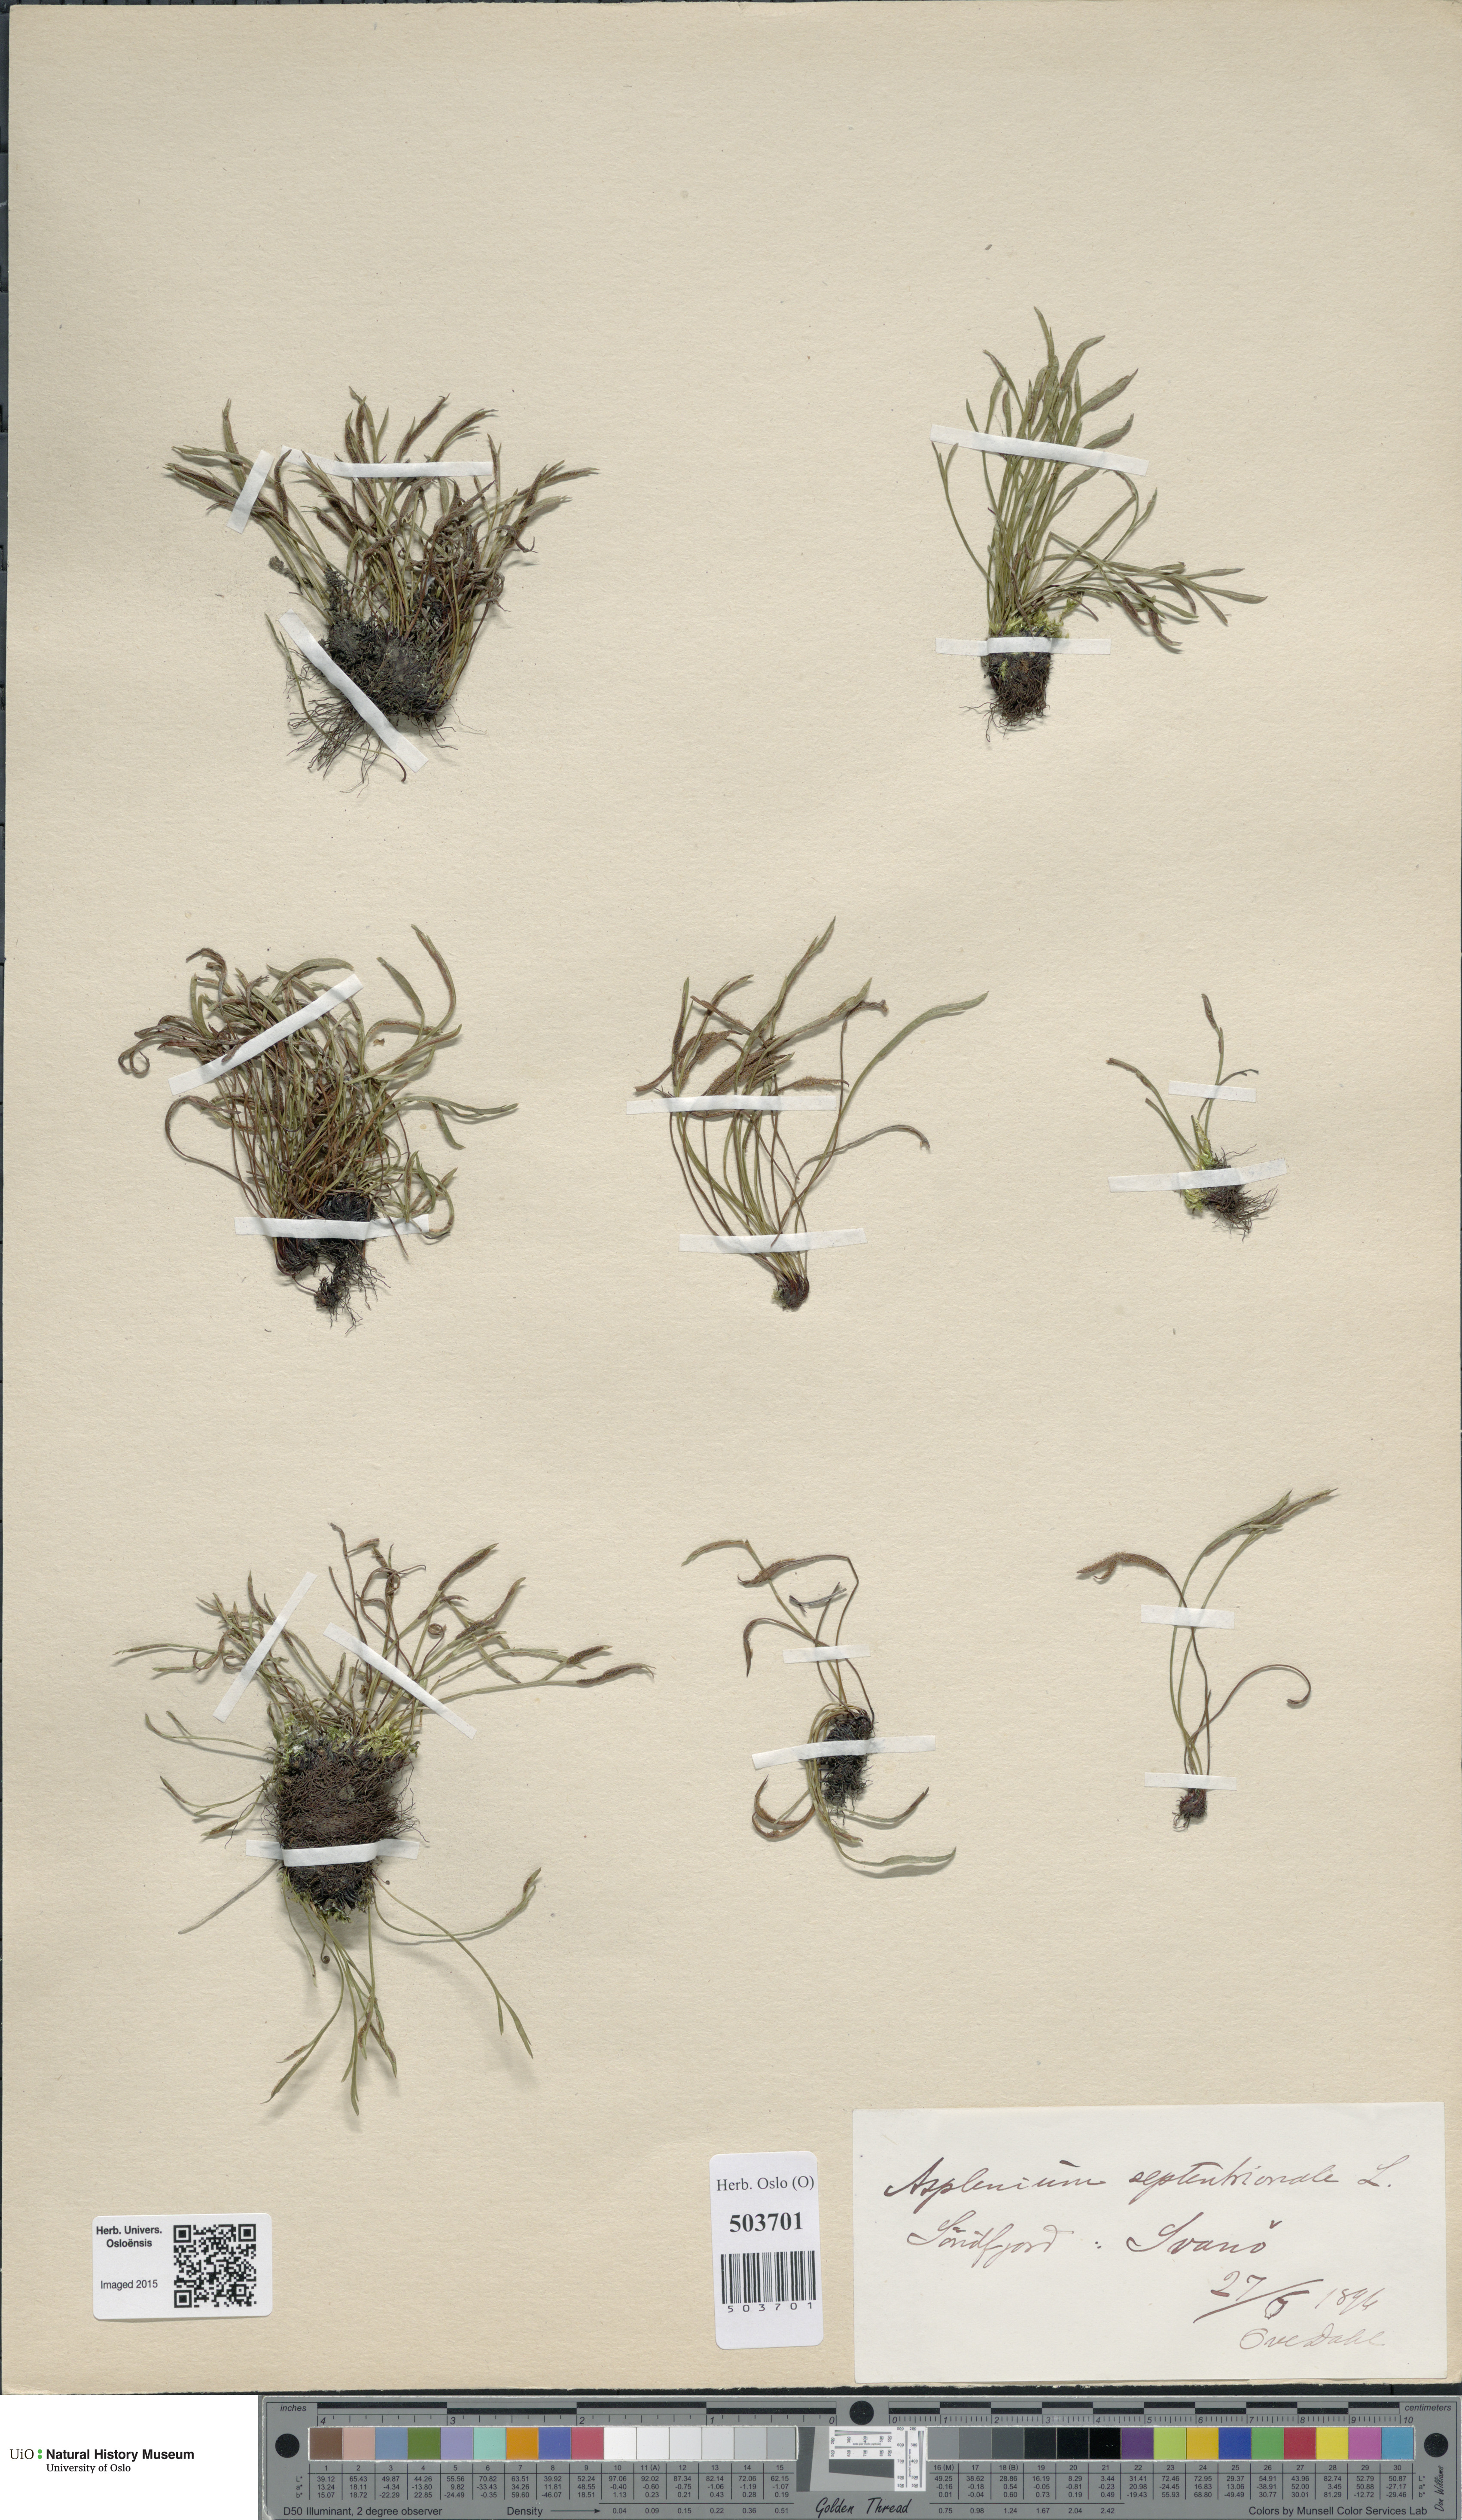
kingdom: Plantae
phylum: Tracheophyta
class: Polypodiopsida
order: Polypodiales
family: Aspleniaceae
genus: Asplenium
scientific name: Asplenium septentrionale
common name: Forked spleenwort
